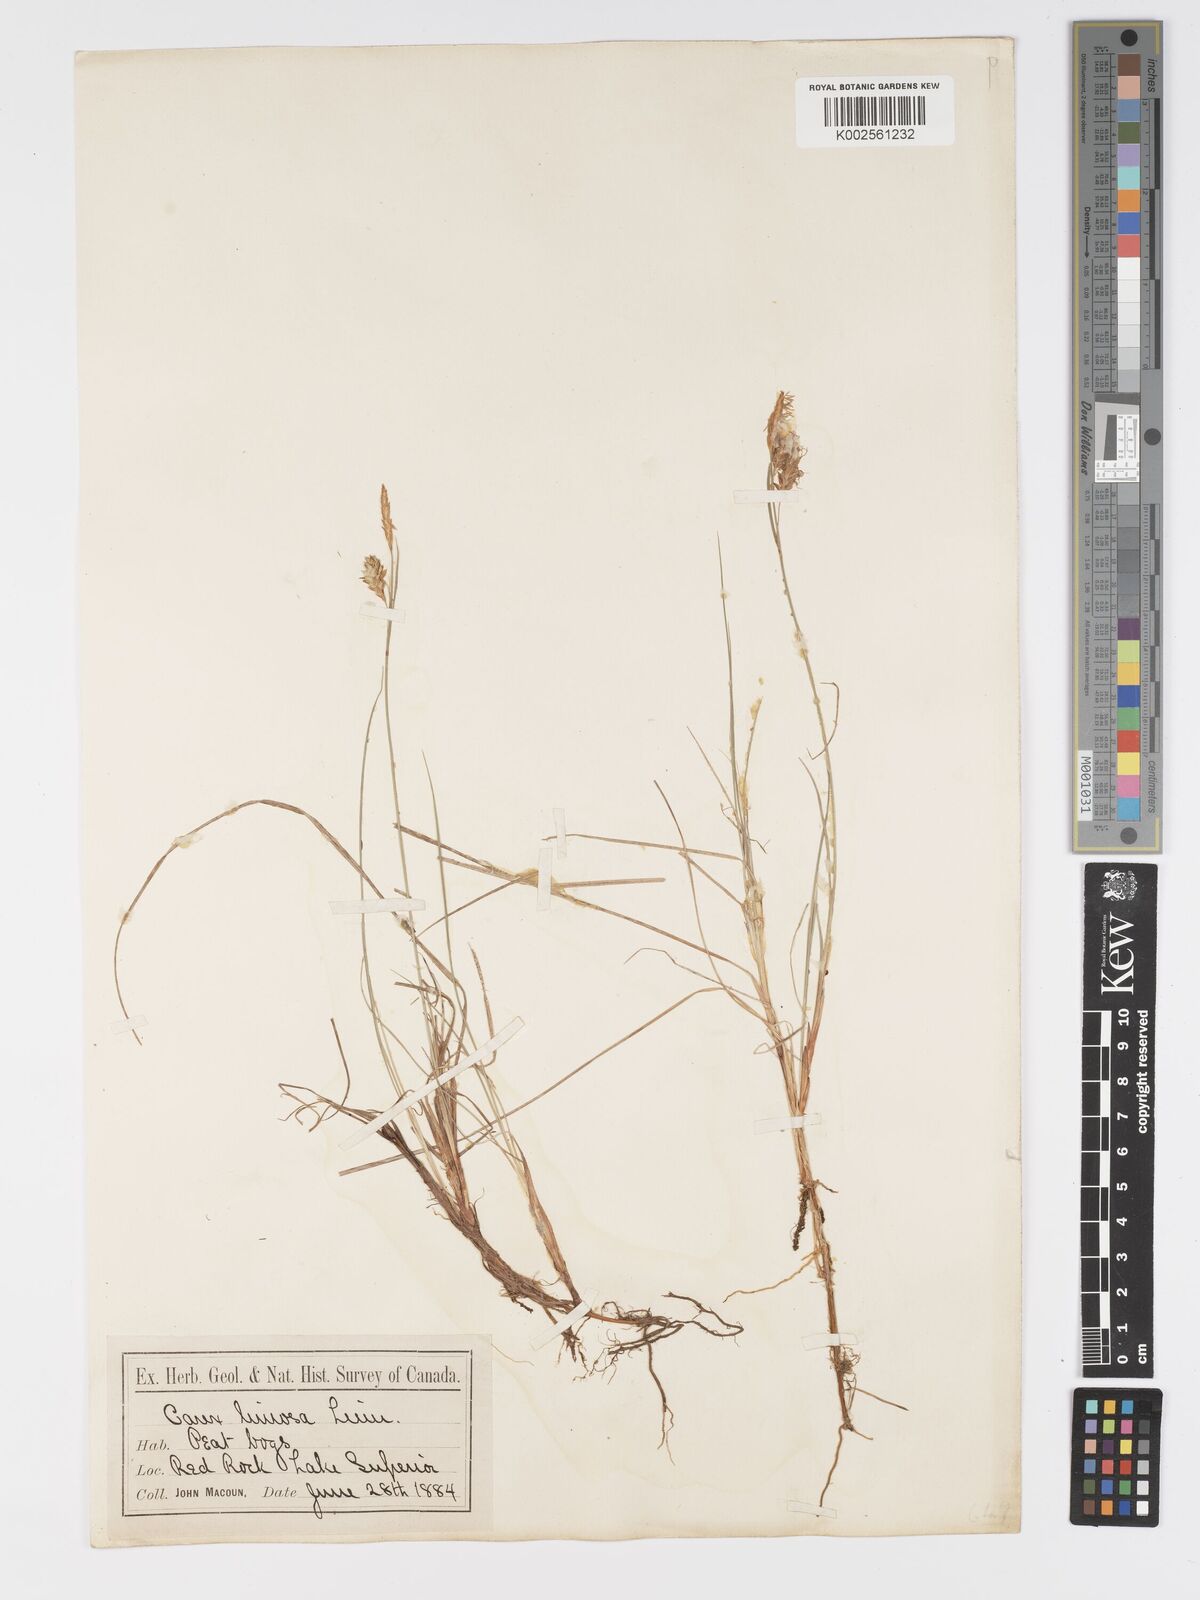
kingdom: Plantae
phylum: Tracheophyta
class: Liliopsida
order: Poales
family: Cyperaceae
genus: Carex
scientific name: Carex limosa
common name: Bog sedge
